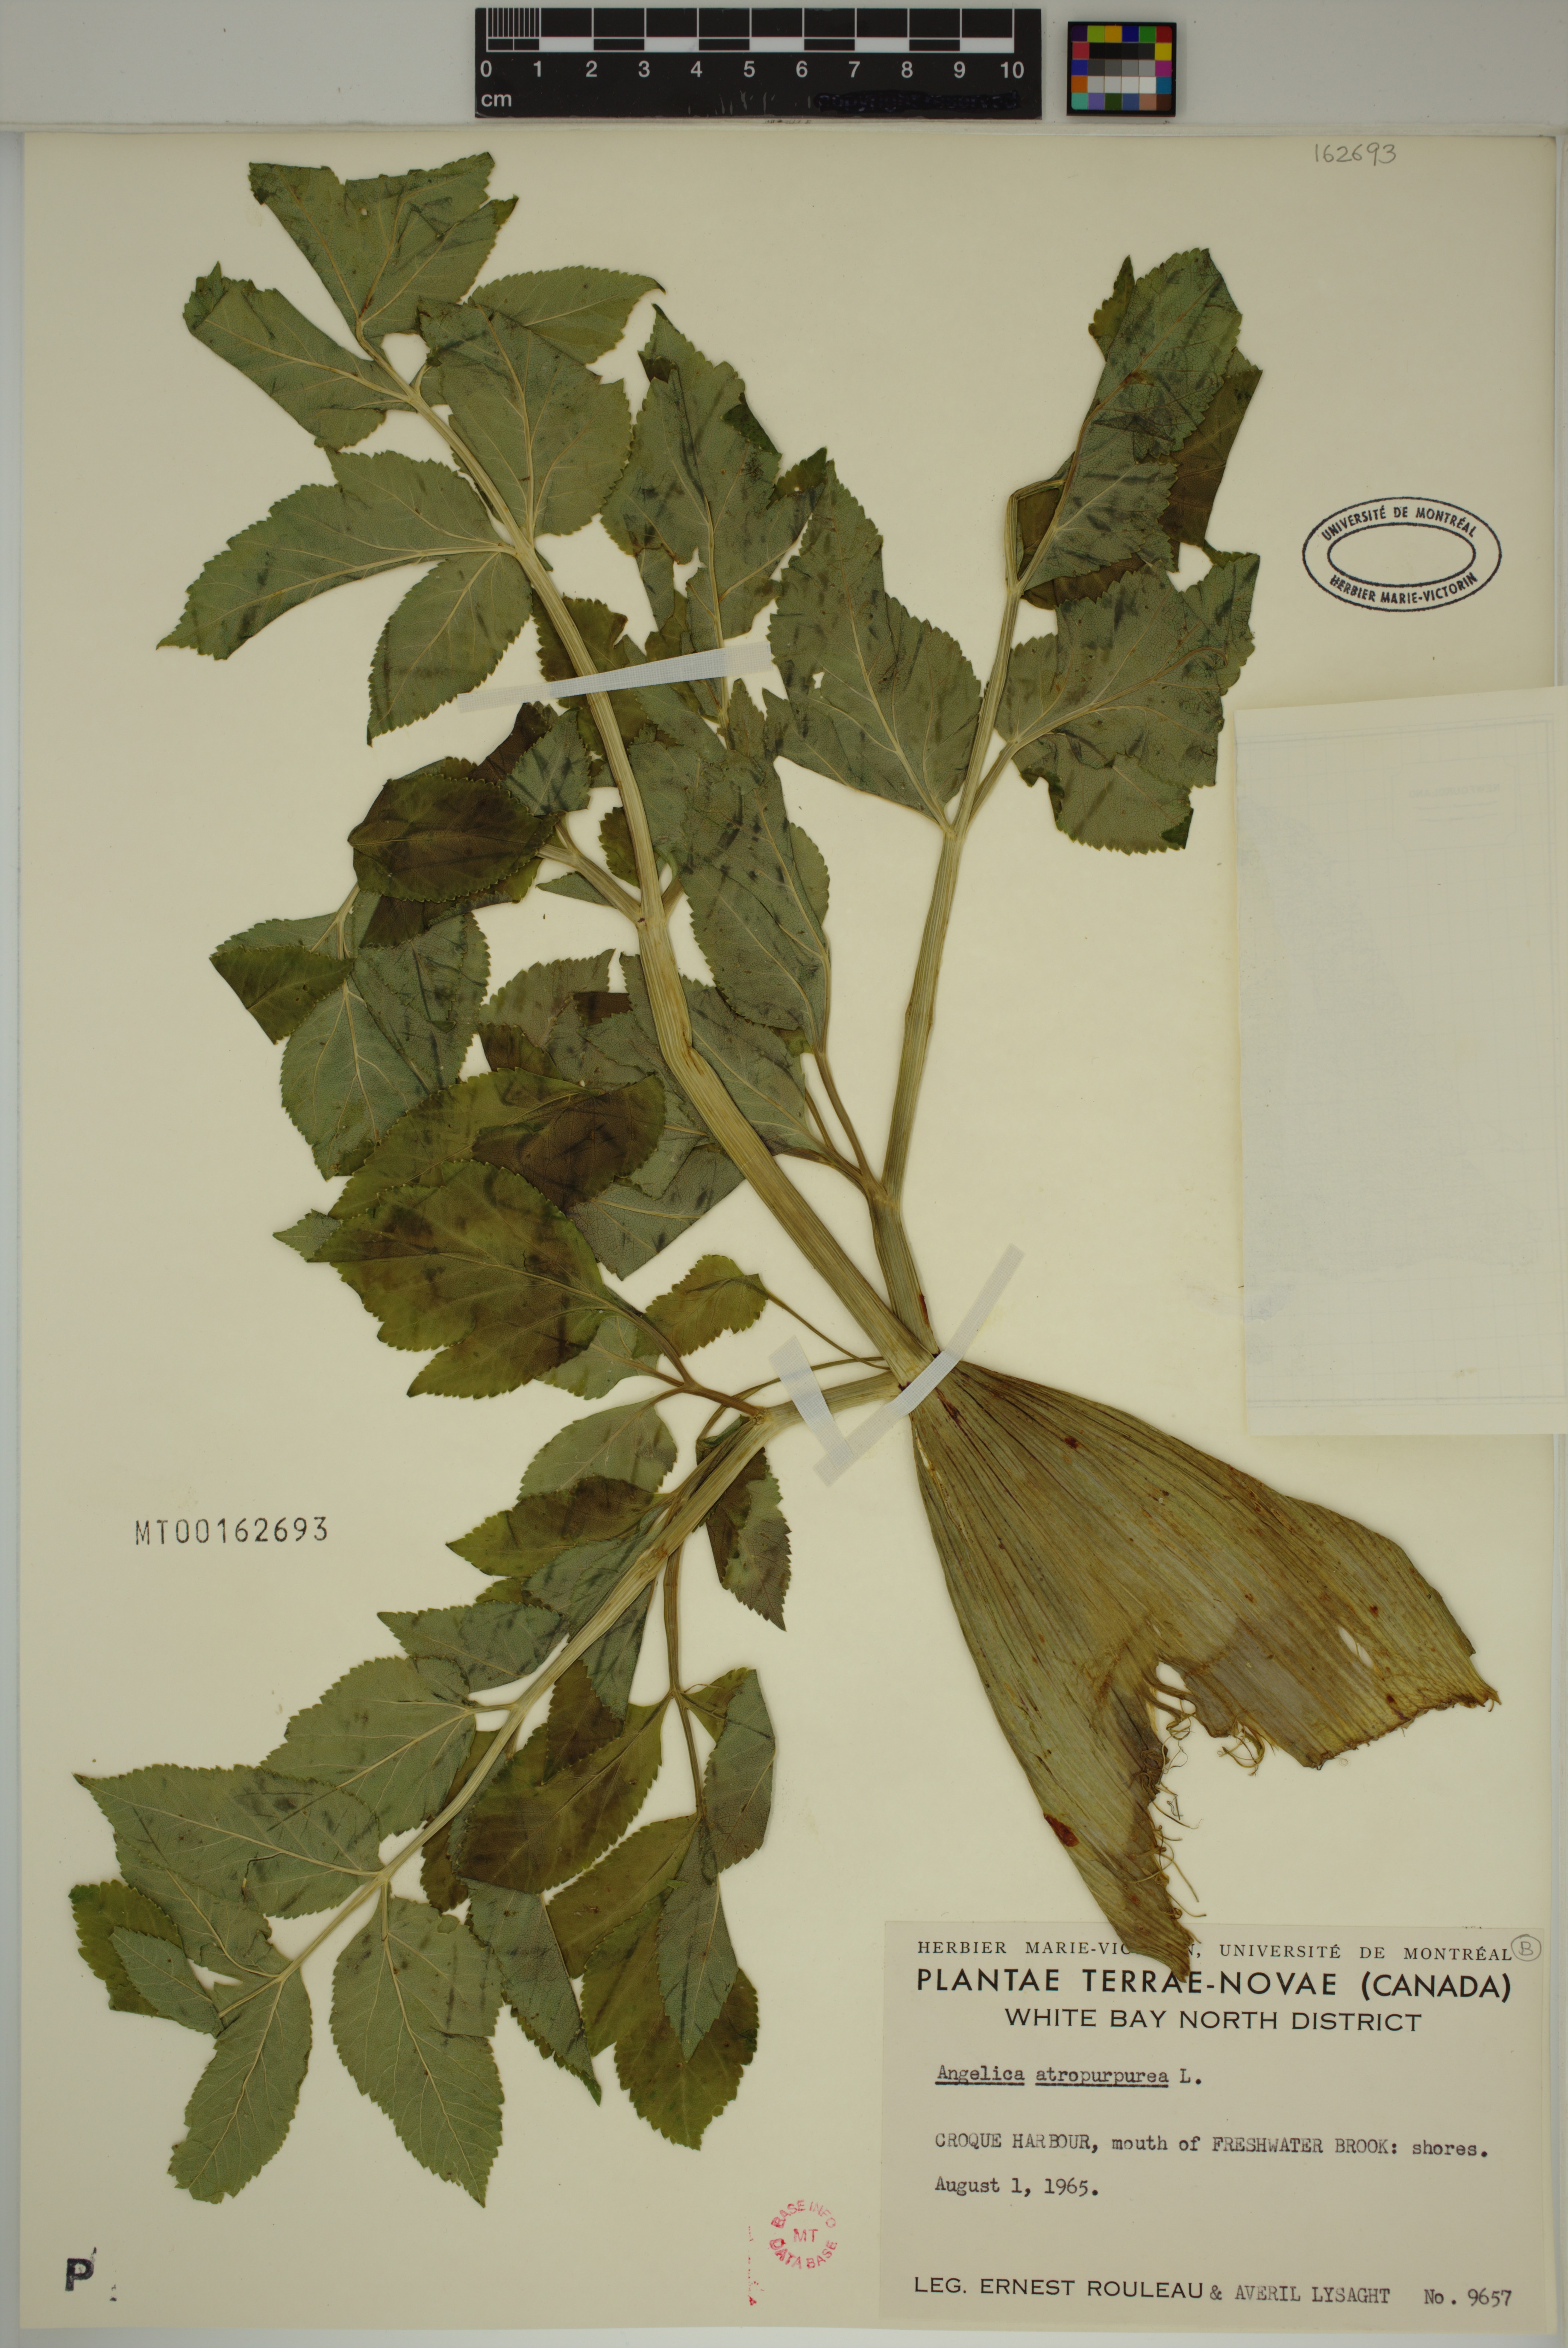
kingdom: Plantae
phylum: Tracheophyta
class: Magnoliopsida
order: Apiales
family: Apiaceae
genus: Angelica
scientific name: Angelica atropurpurea
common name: Great angelica
